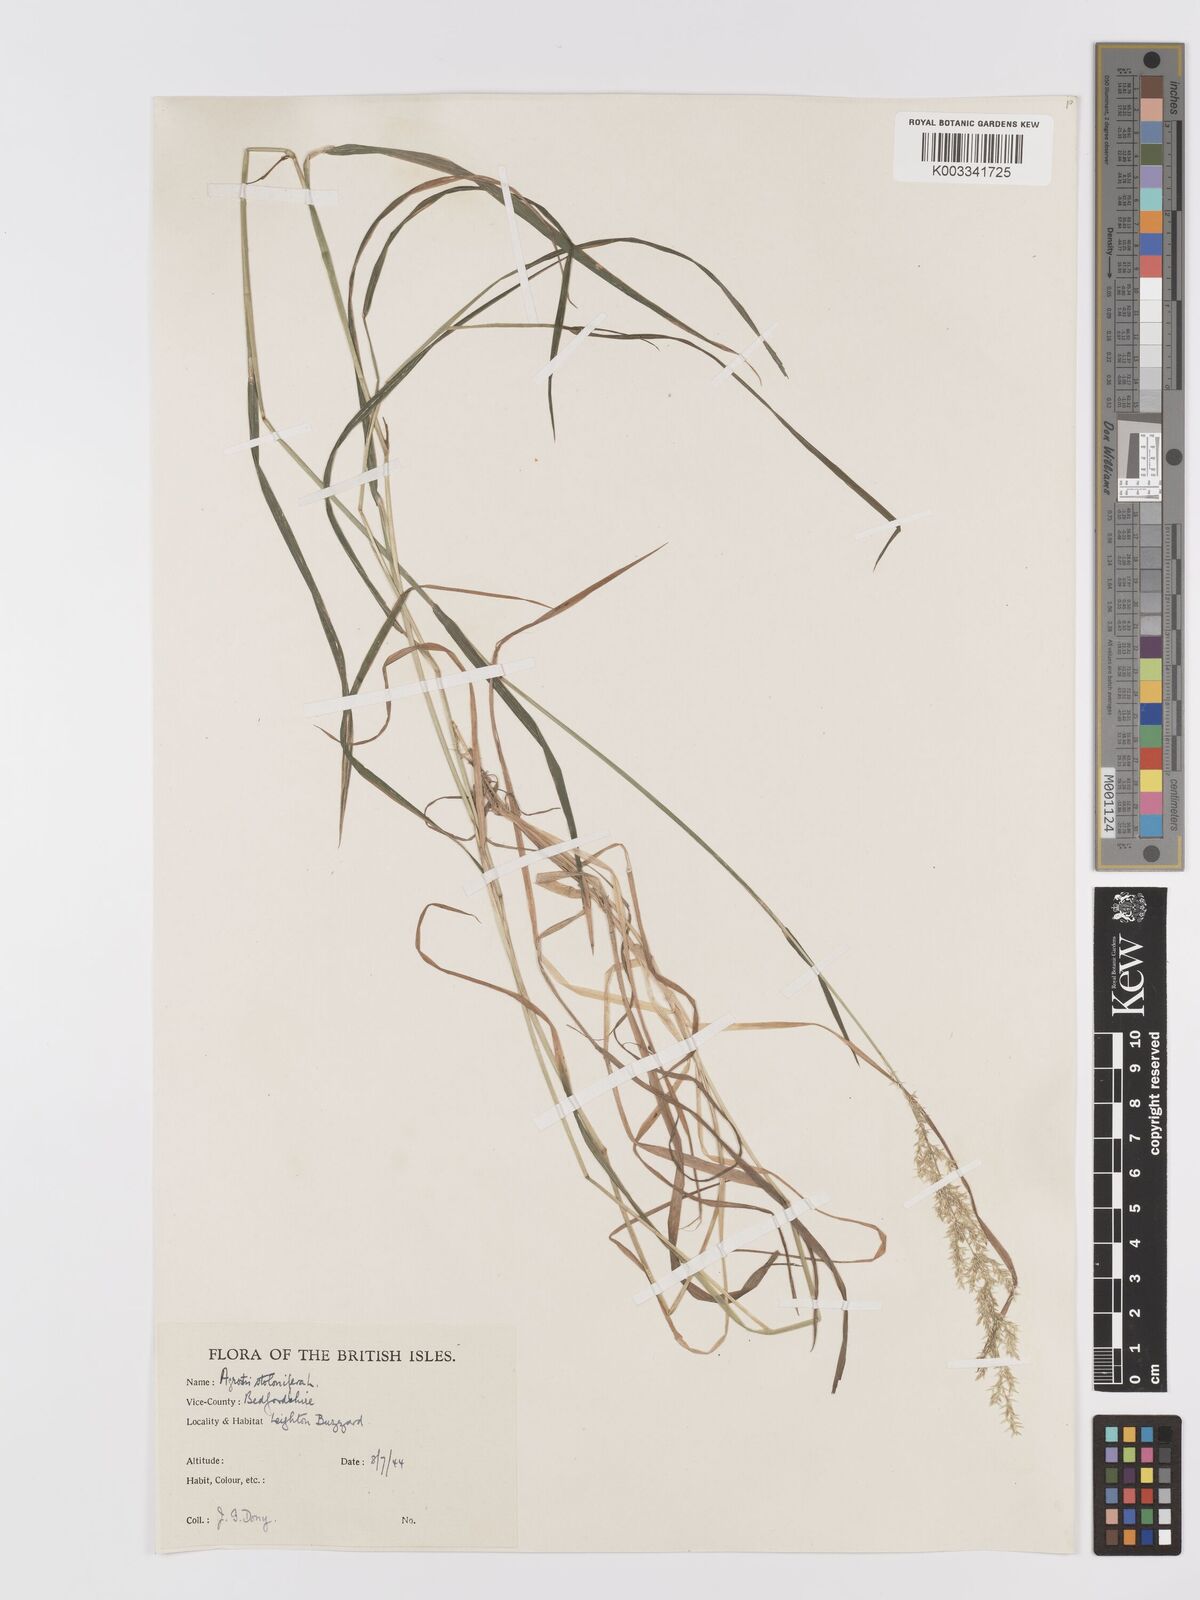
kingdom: Plantae
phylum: Tracheophyta
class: Liliopsida
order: Poales
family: Poaceae
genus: Agrostis
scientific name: Agrostis stolonifera
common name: Creeping bentgrass
